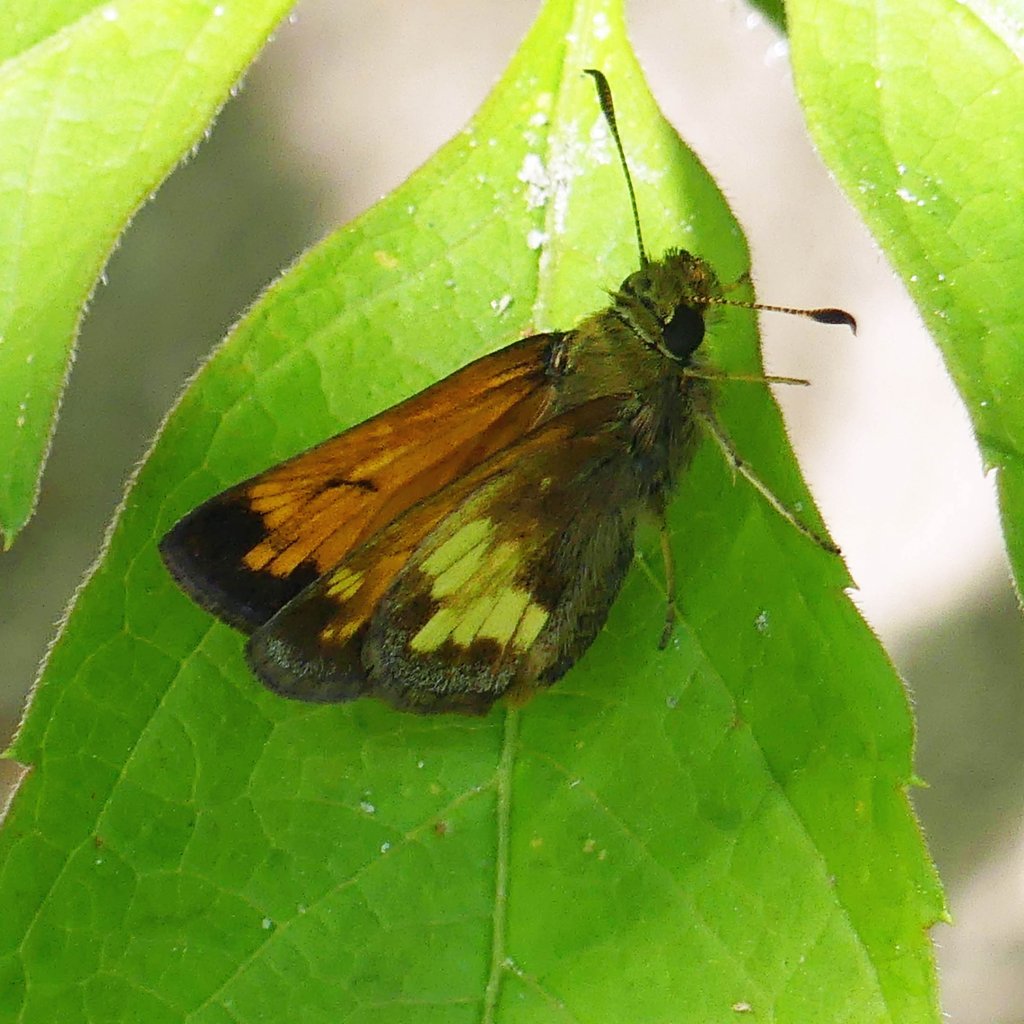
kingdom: Animalia
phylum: Arthropoda
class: Insecta
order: Lepidoptera
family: Hesperiidae
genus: Lon
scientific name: Lon hobomok
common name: Hobomok Skipper
